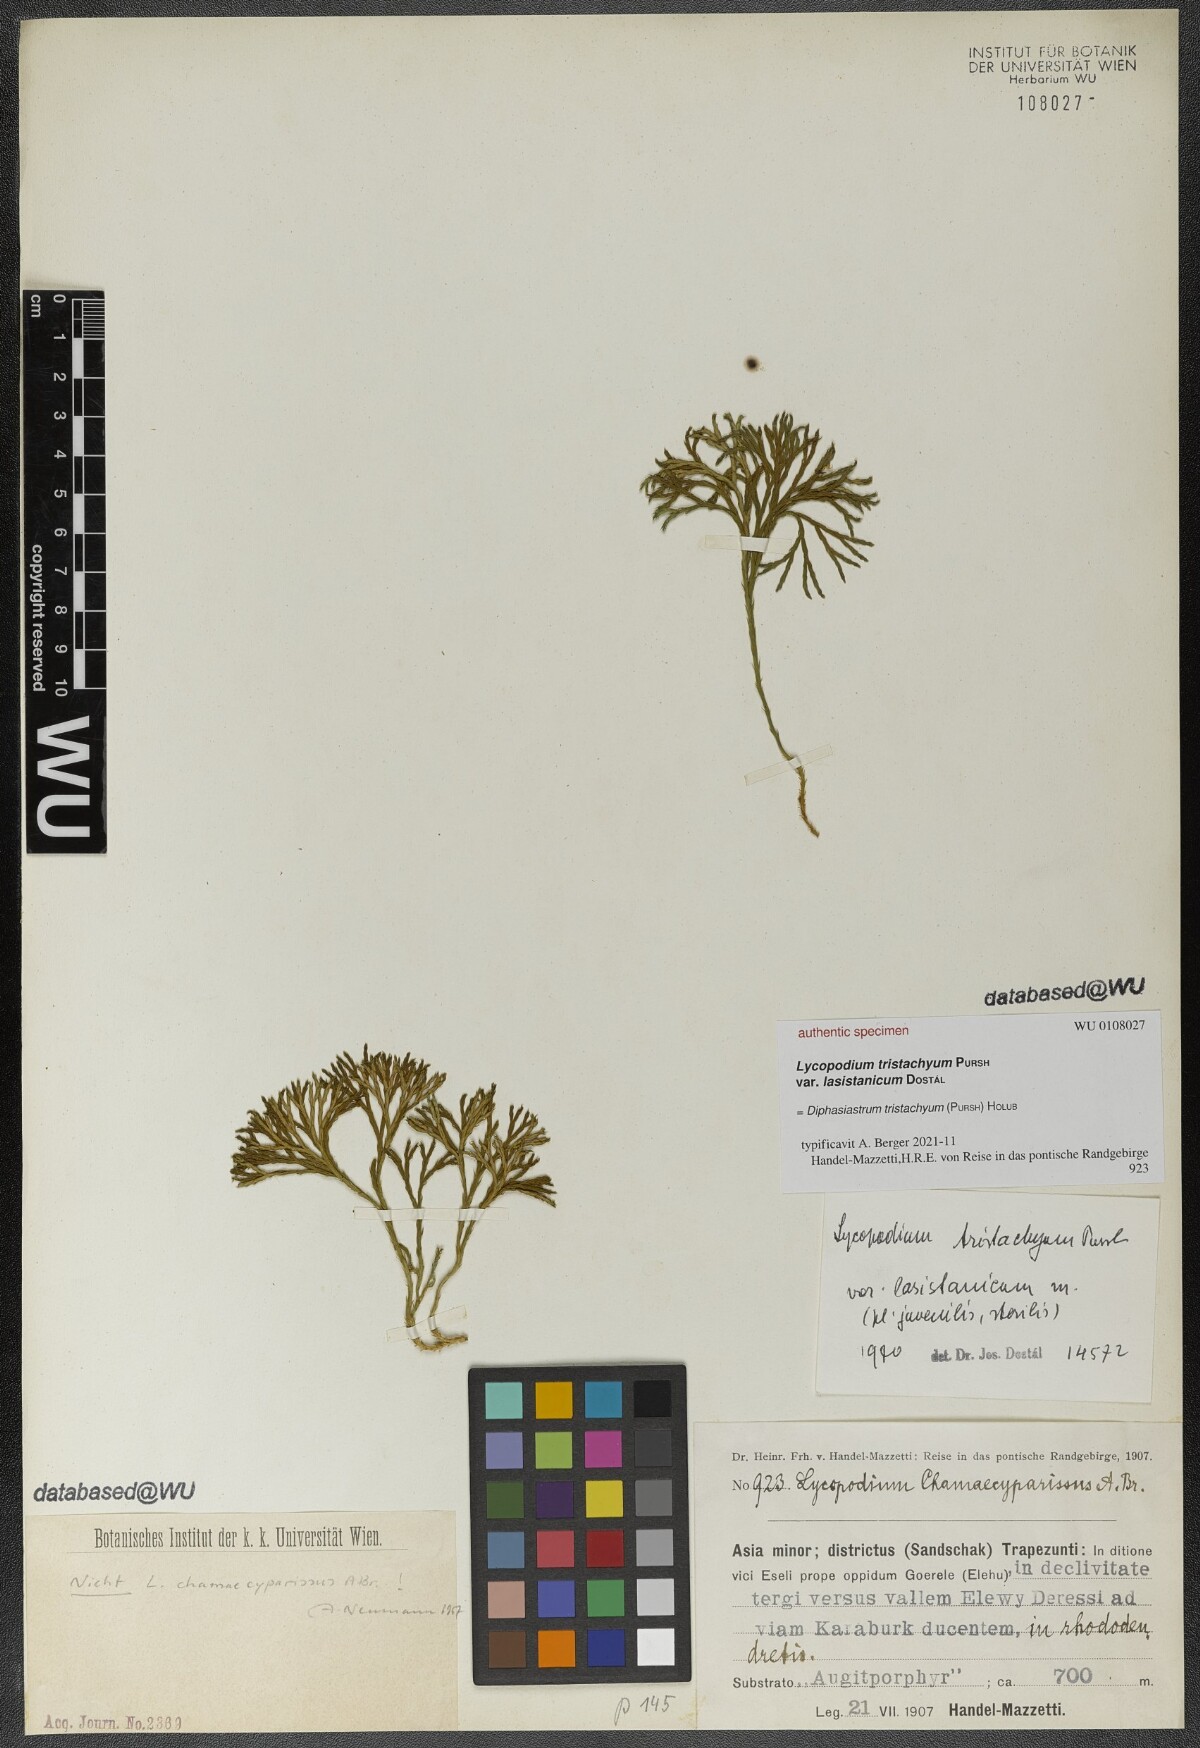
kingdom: Plantae
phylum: Tracheophyta
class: Lycopodiopsida
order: Lycopodiales
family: Lycopodiaceae
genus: Diphasiastrum
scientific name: Diphasiastrum tristachyum
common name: Blue ground-cedar
